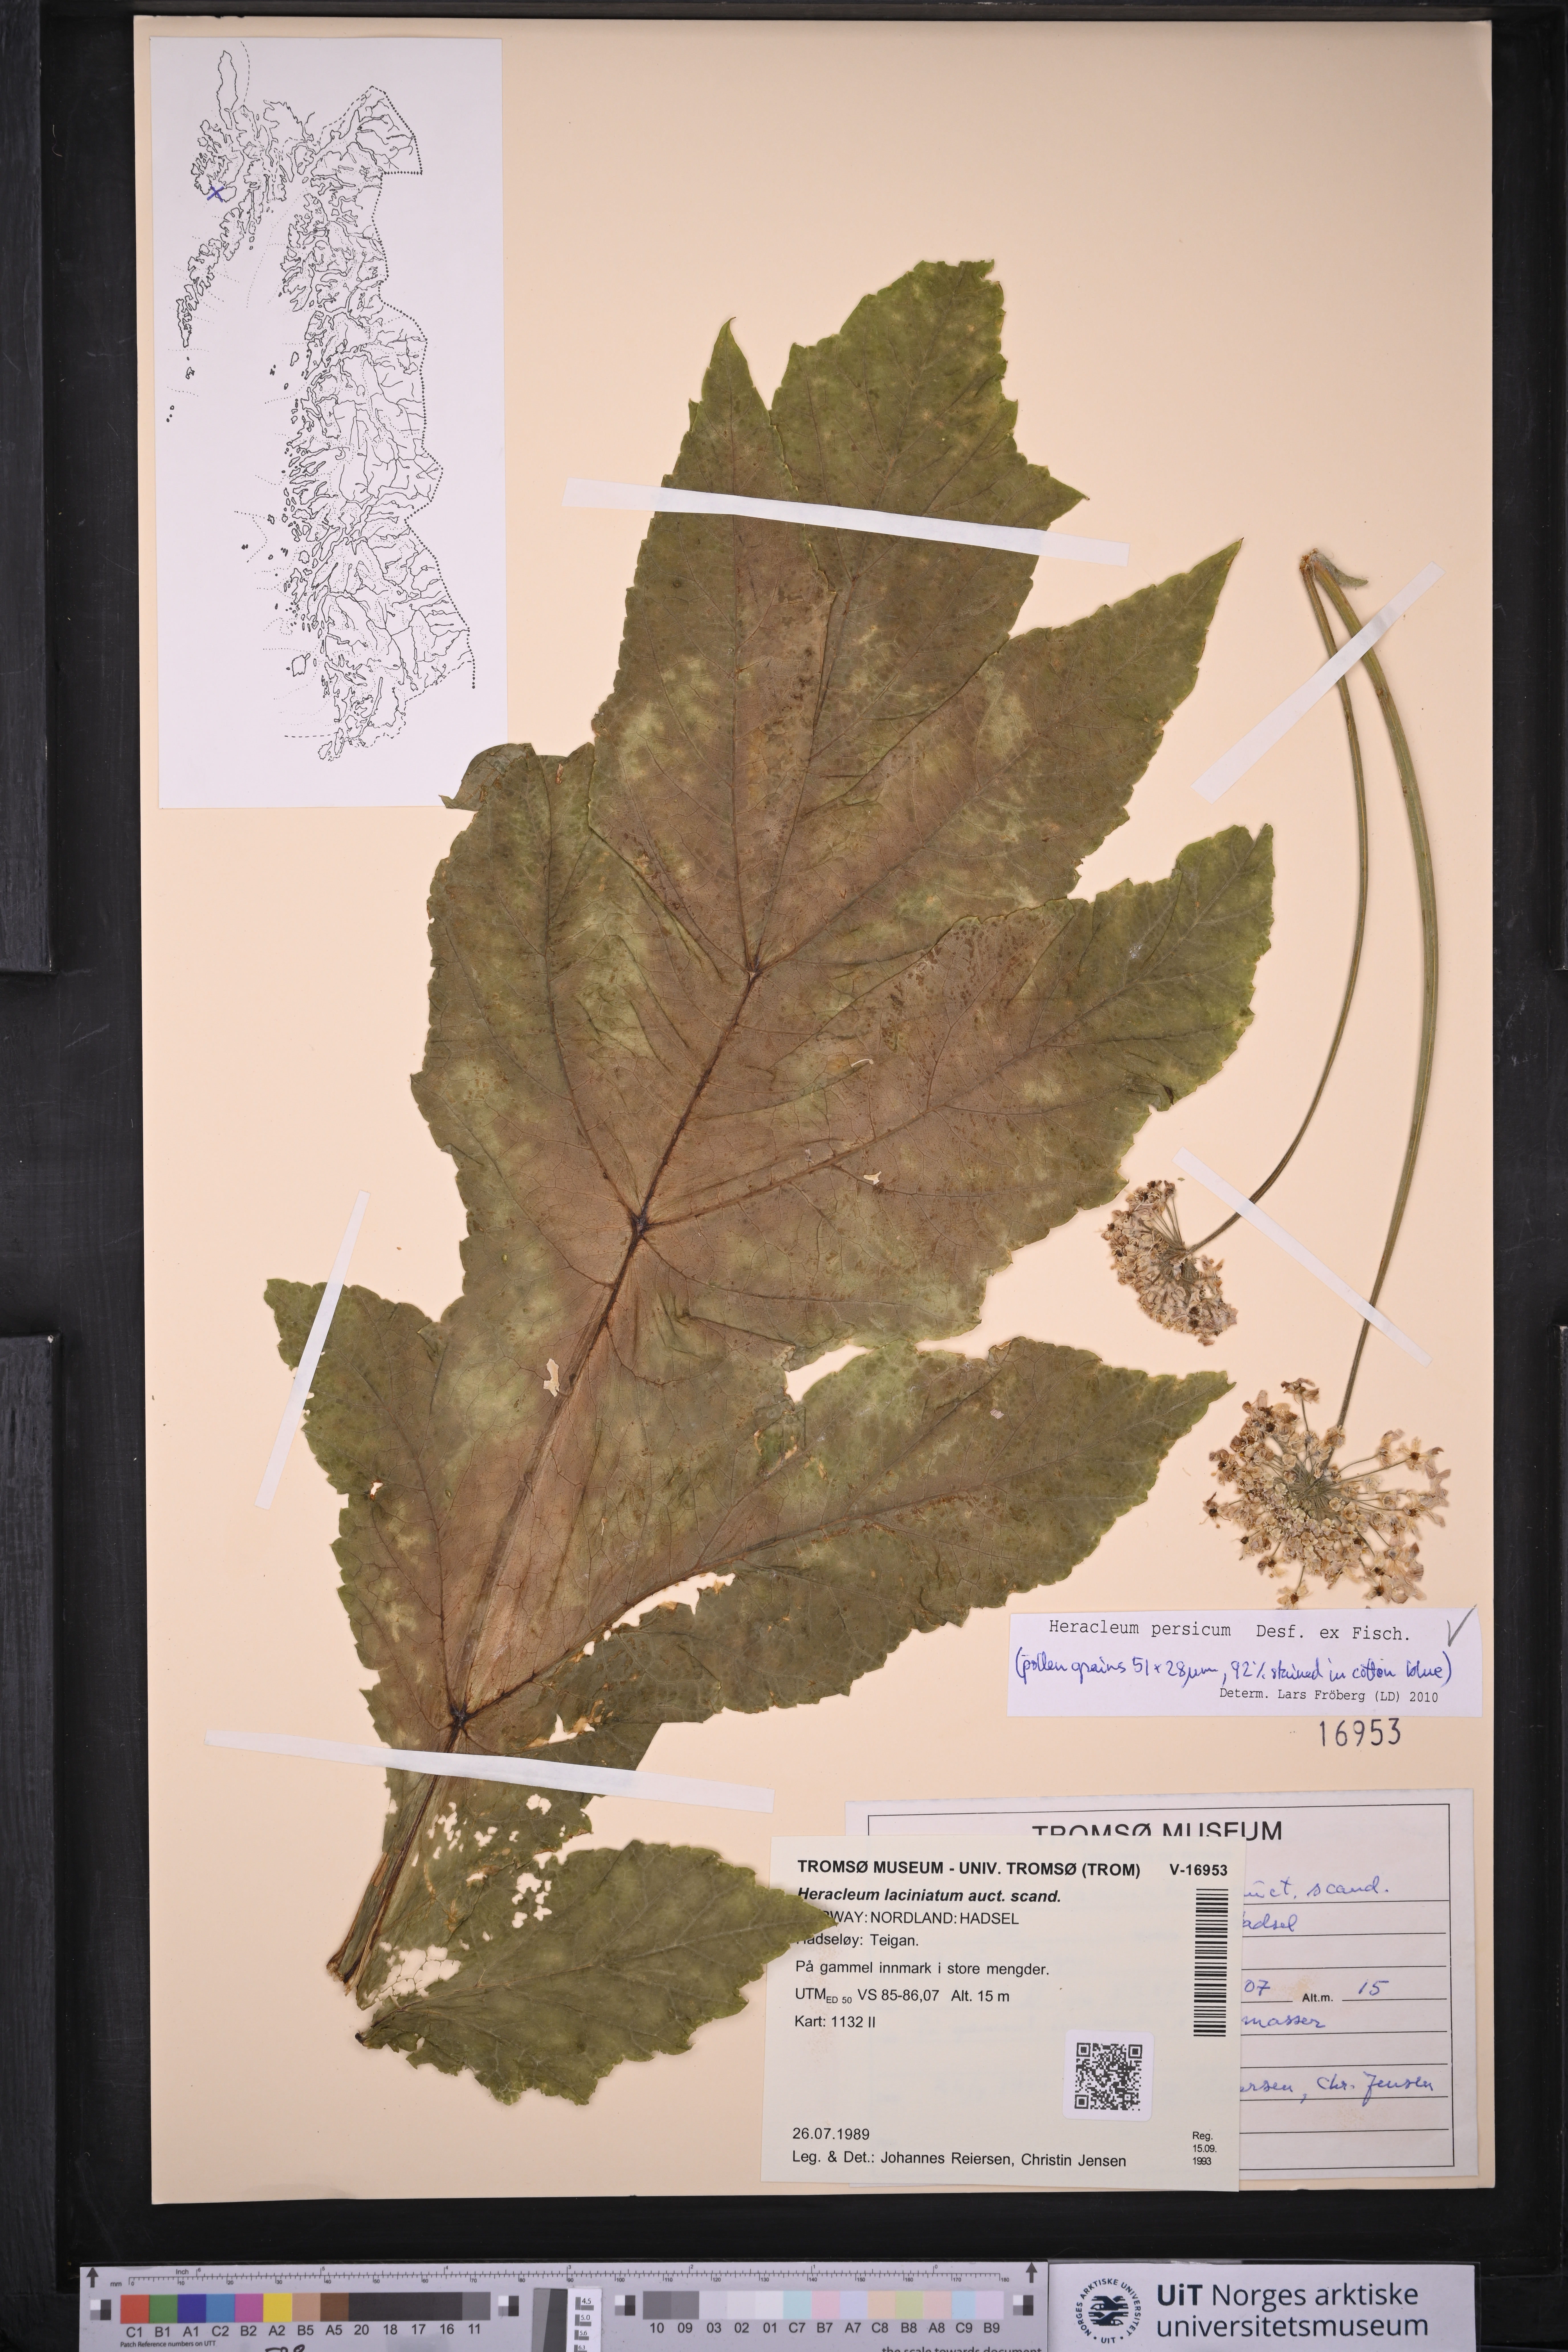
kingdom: Plantae
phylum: Tracheophyta
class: Magnoliopsida
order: Apiales
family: Apiaceae
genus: Heracleum
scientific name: Heracleum persicum
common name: Persian hogweed
